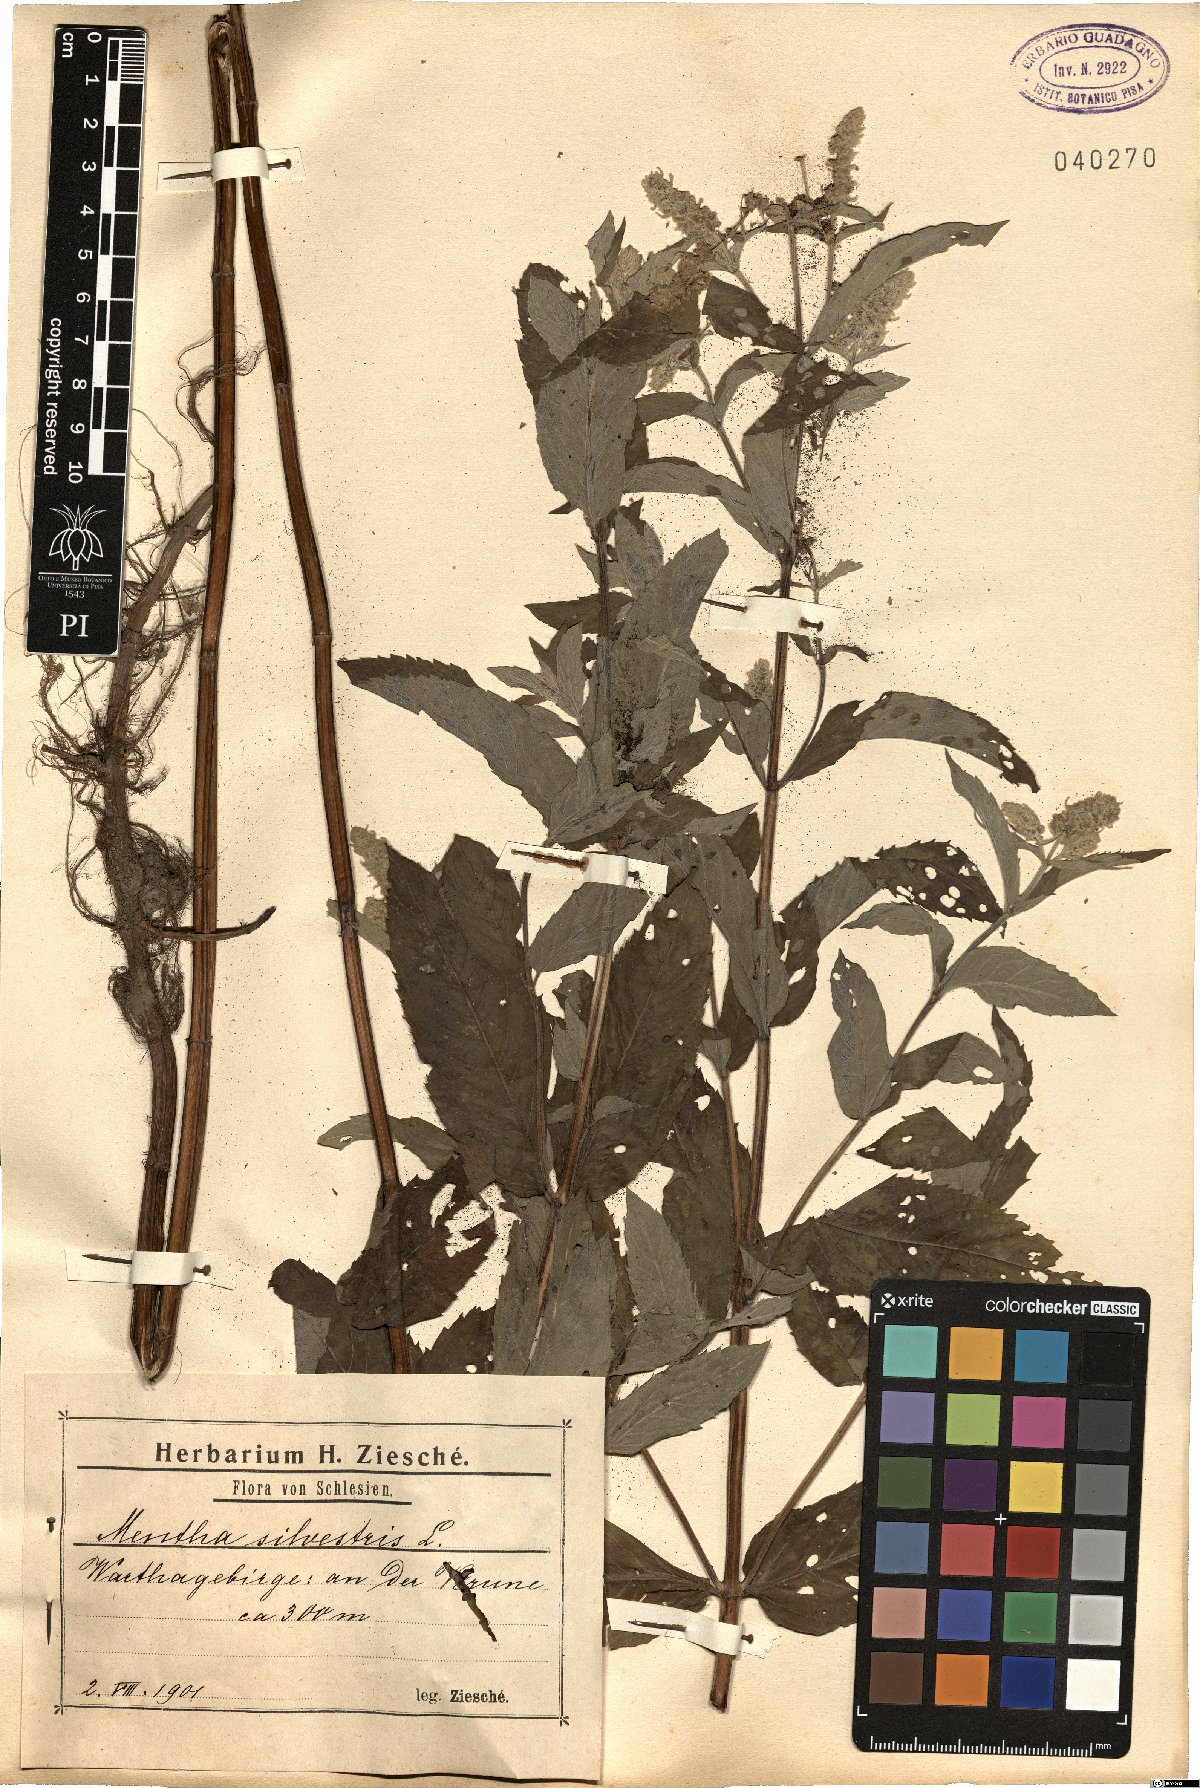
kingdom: Plantae
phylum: Tracheophyta
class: Magnoliopsida
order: Lamiales
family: Lamiaceae
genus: Mentha
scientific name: Mentha longifolia
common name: Horse mint
